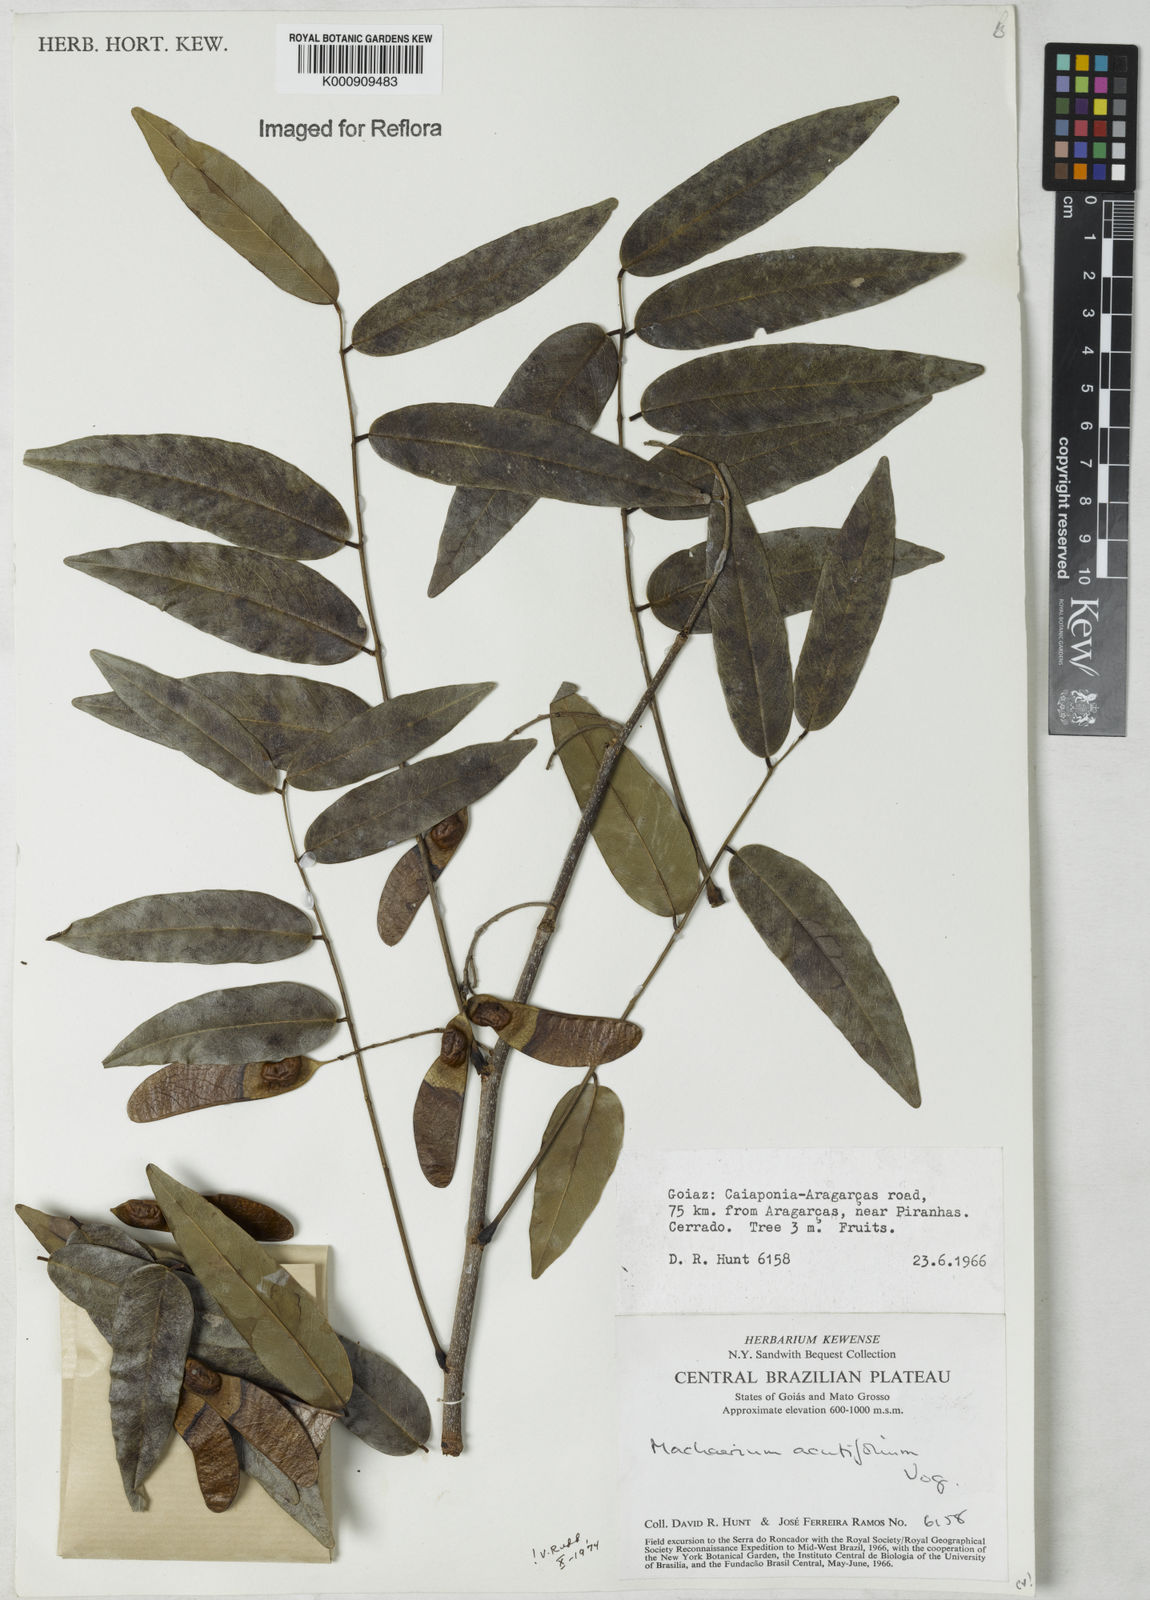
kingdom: Plantae
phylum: Tracheophyta
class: Magnoliopsida
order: Fabales
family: Fabaceae
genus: Machaerium
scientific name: Machaerium acutifolium
